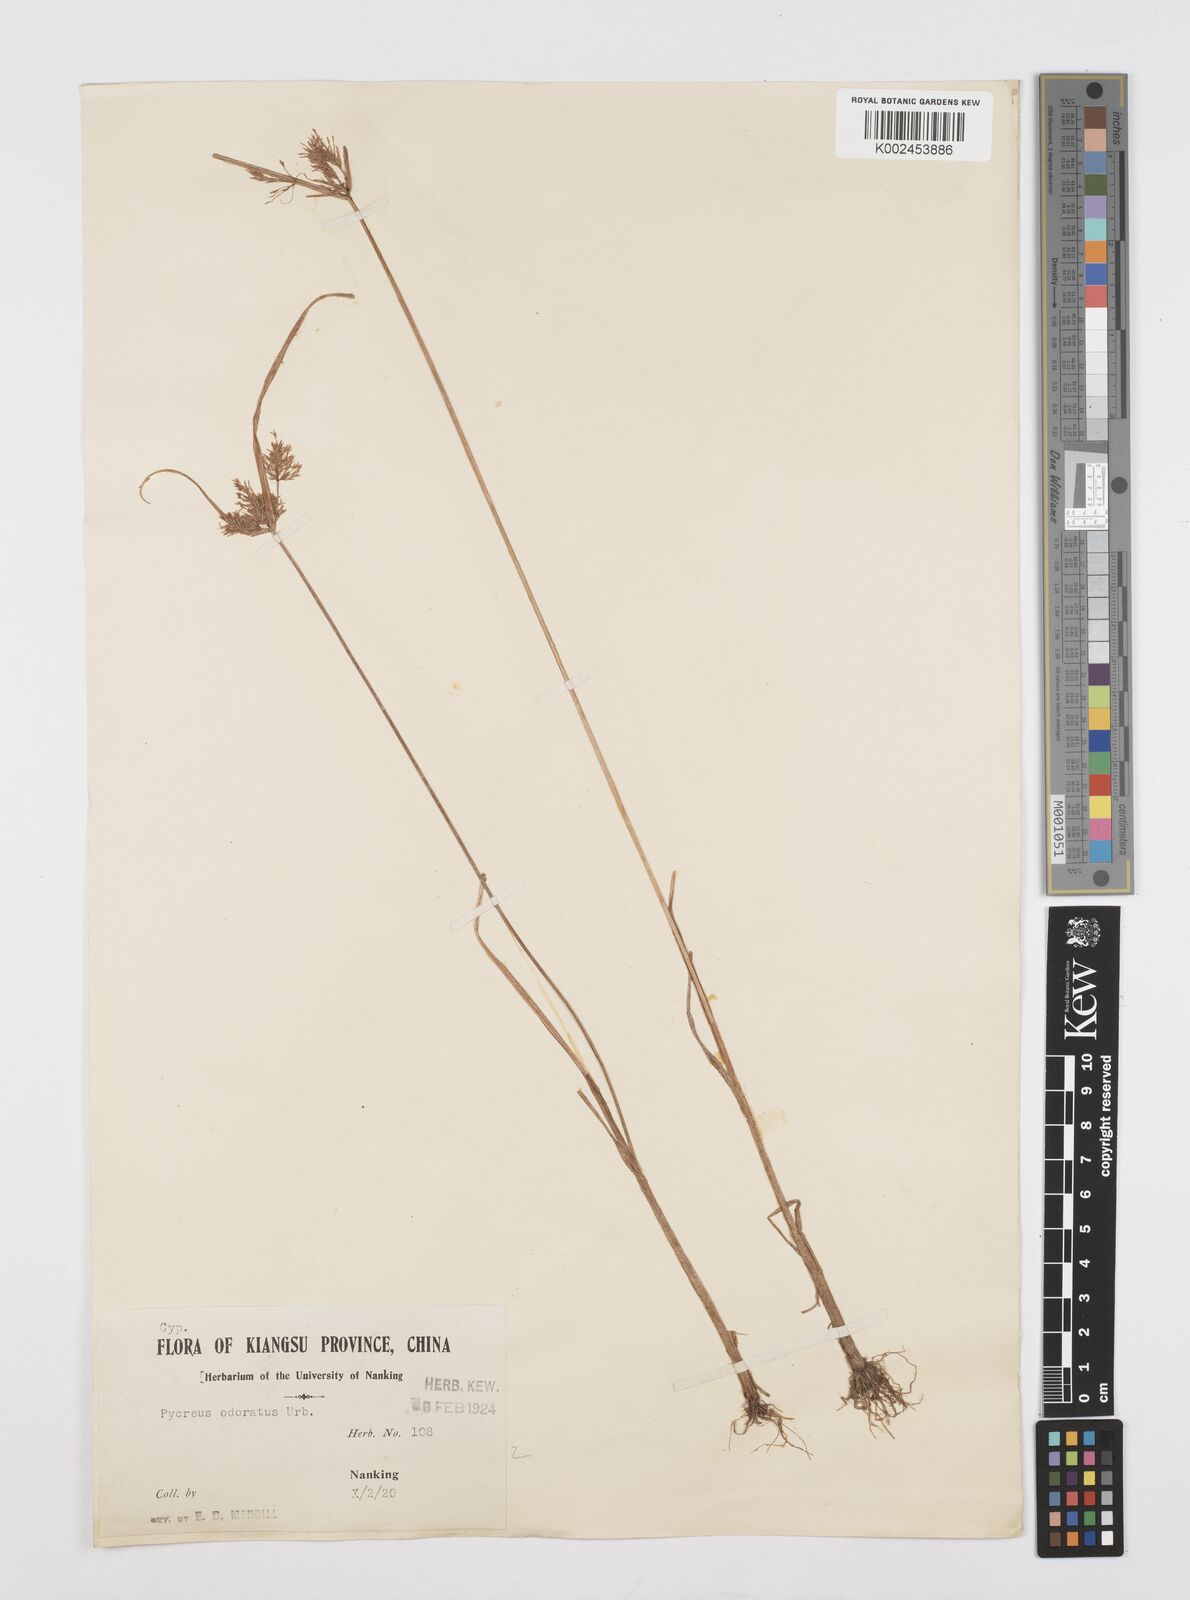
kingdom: Plantae
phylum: Tracheophyta
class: Liliopsida
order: Poales
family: Cyperaceae
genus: Cyperus
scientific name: Cyperus polystachyos
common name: Bunchy flat sedge
